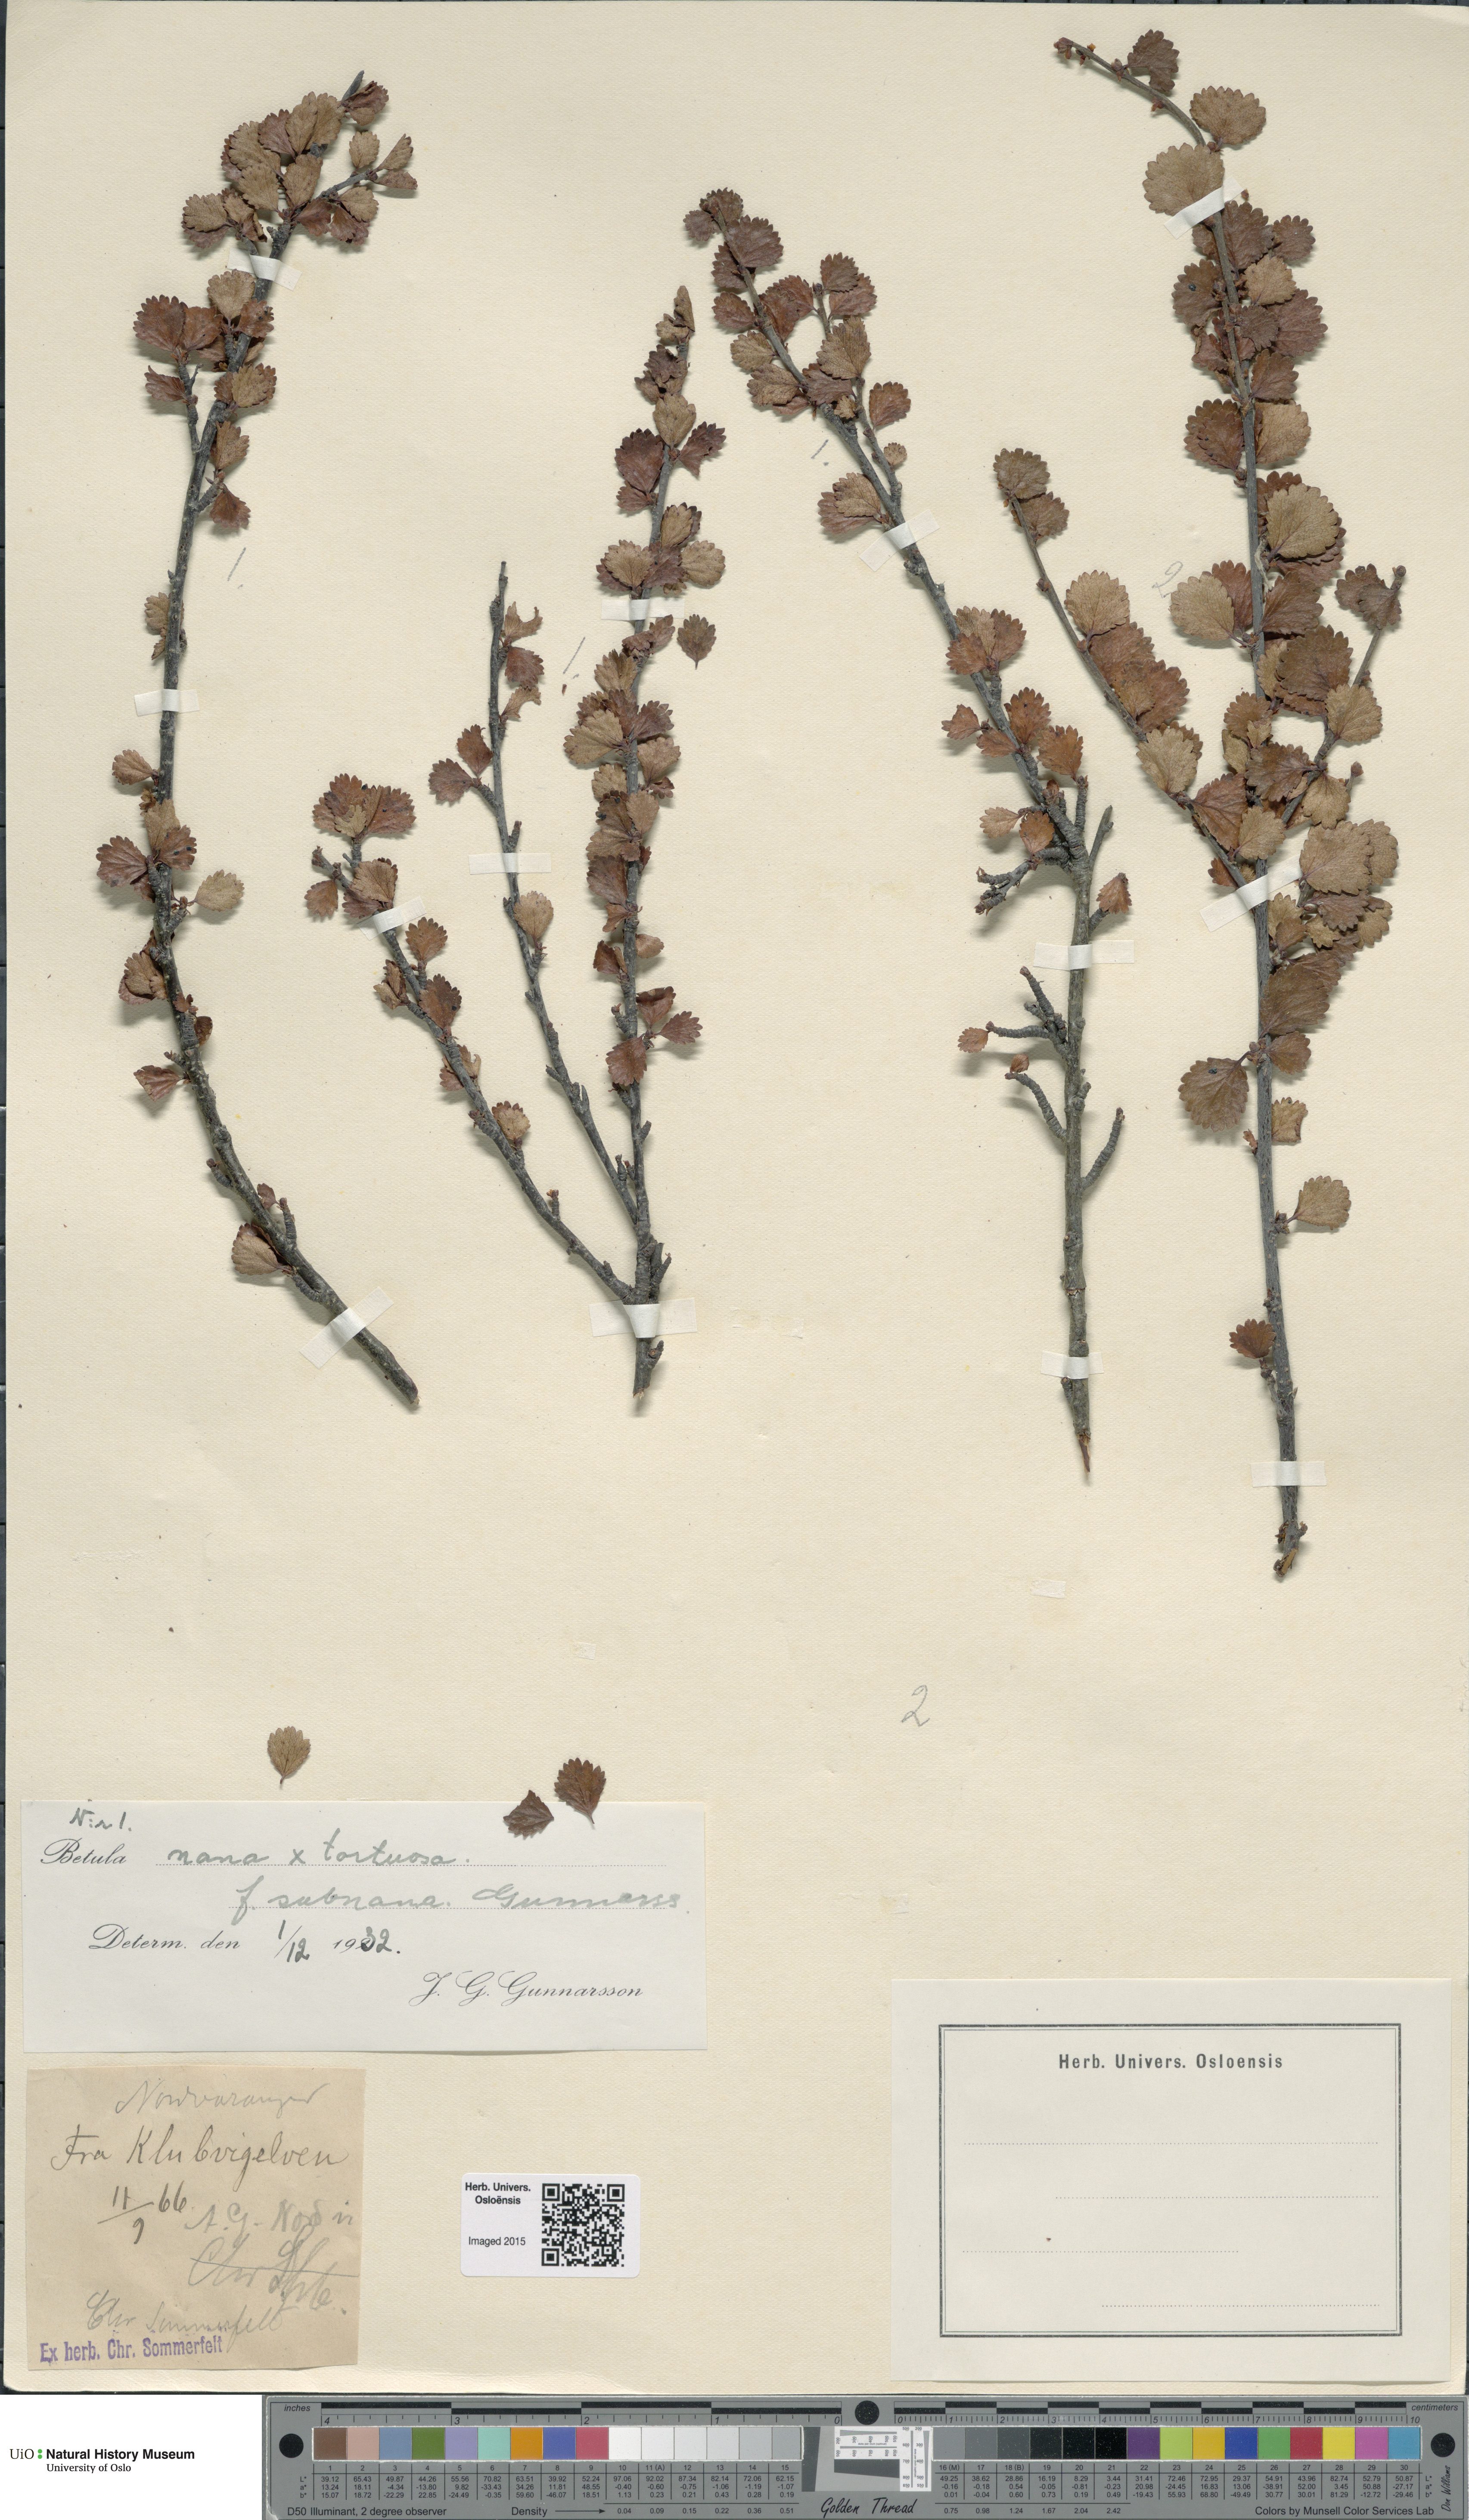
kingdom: Plantae
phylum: Tracheophyta
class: Magnoliopsida
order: Fagales
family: Betulaceae
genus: Betula
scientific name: Betula nana
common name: Arctic dwarf birch
